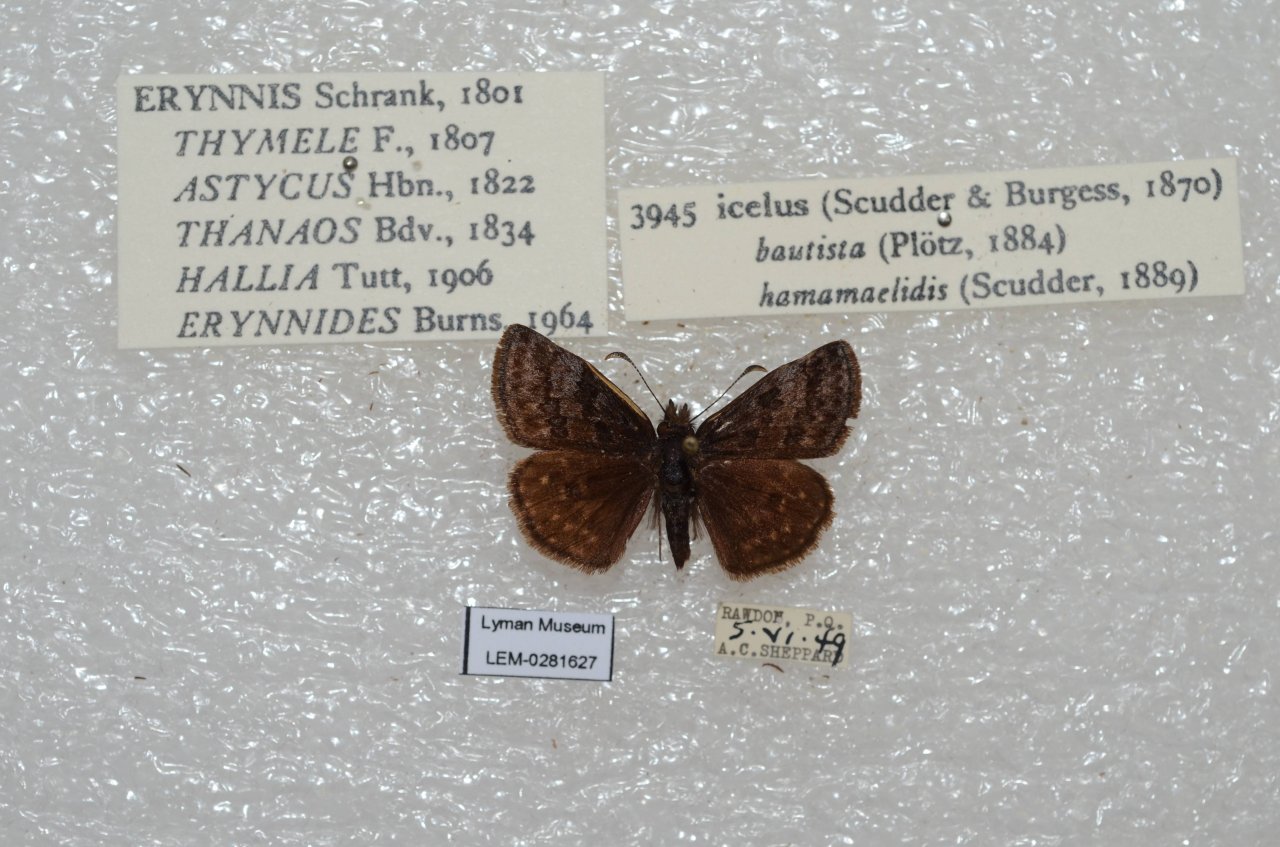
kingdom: Animalia
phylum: Arthropoda
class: Insecta
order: Lepidoptera
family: Hesperiidae
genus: Erynnis
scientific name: Erynnis icelus
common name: Dreamy Duskywing
